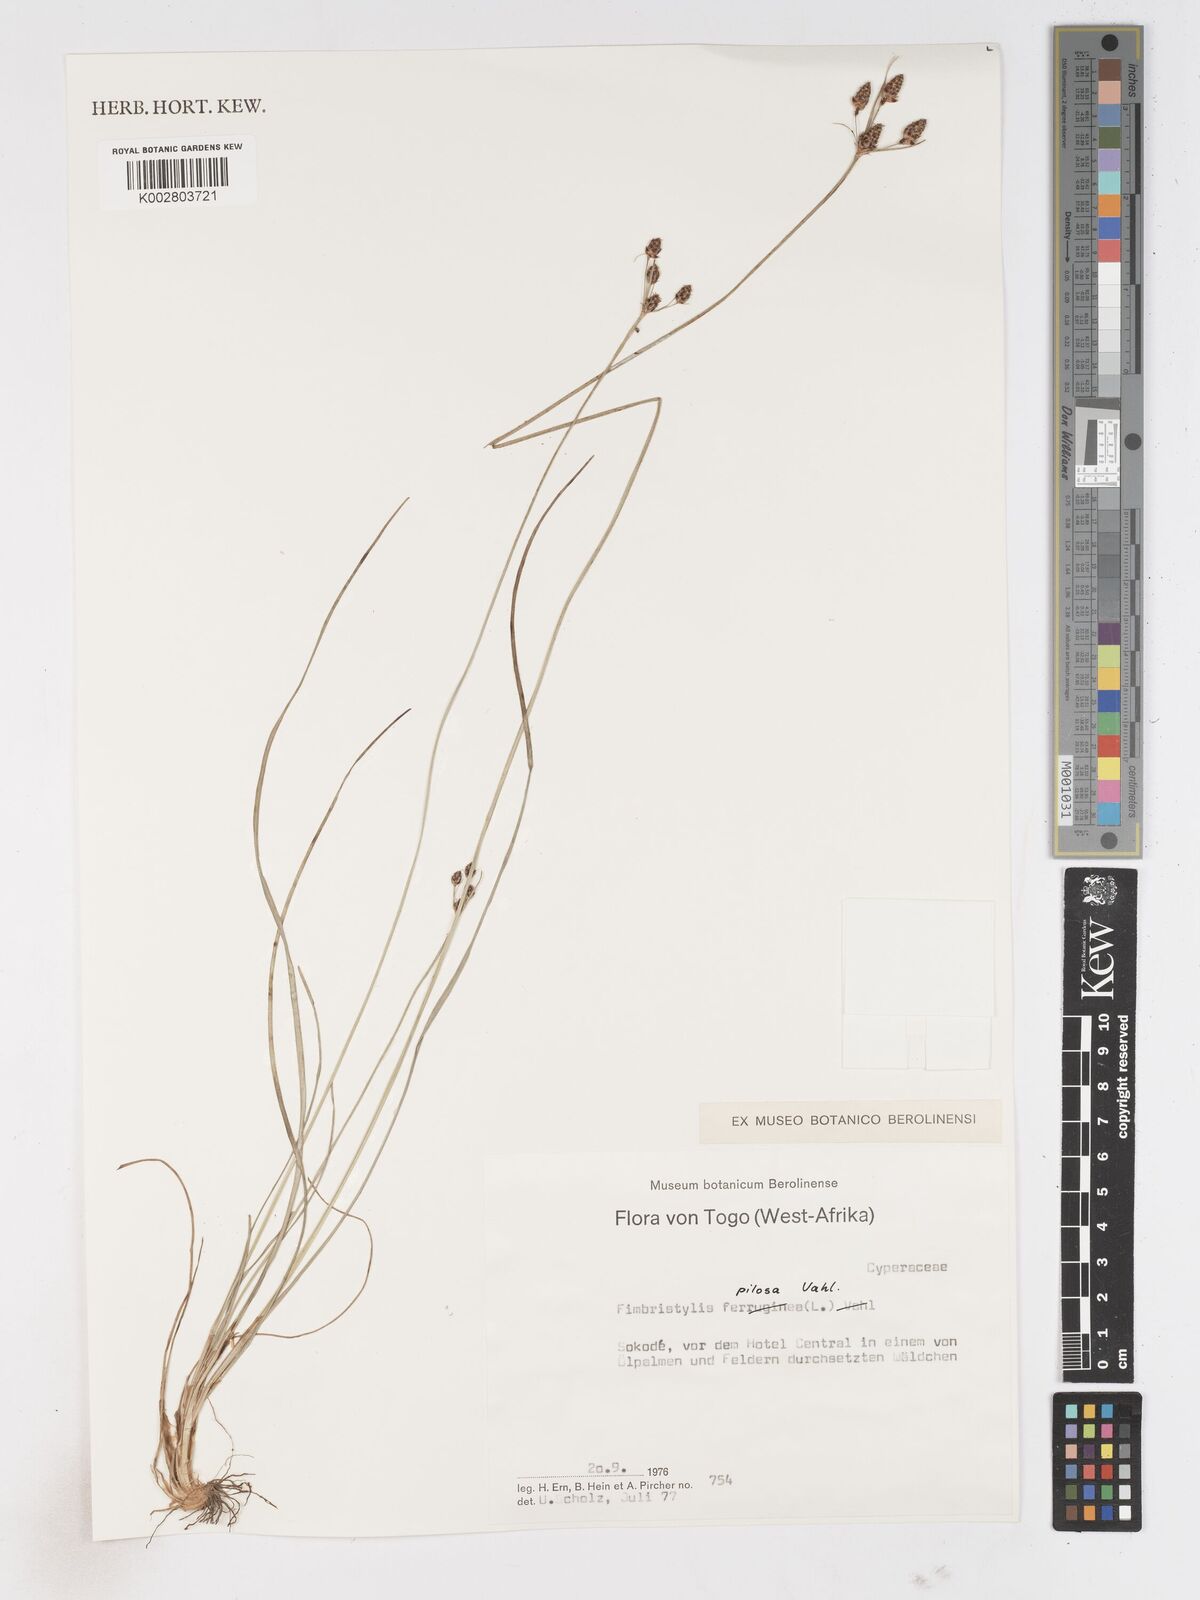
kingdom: Plantae
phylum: Tracheophyta
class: Liliopsida
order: Poales
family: Cyperaceae
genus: Bulbostylis
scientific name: Bulbostylis pilosa
